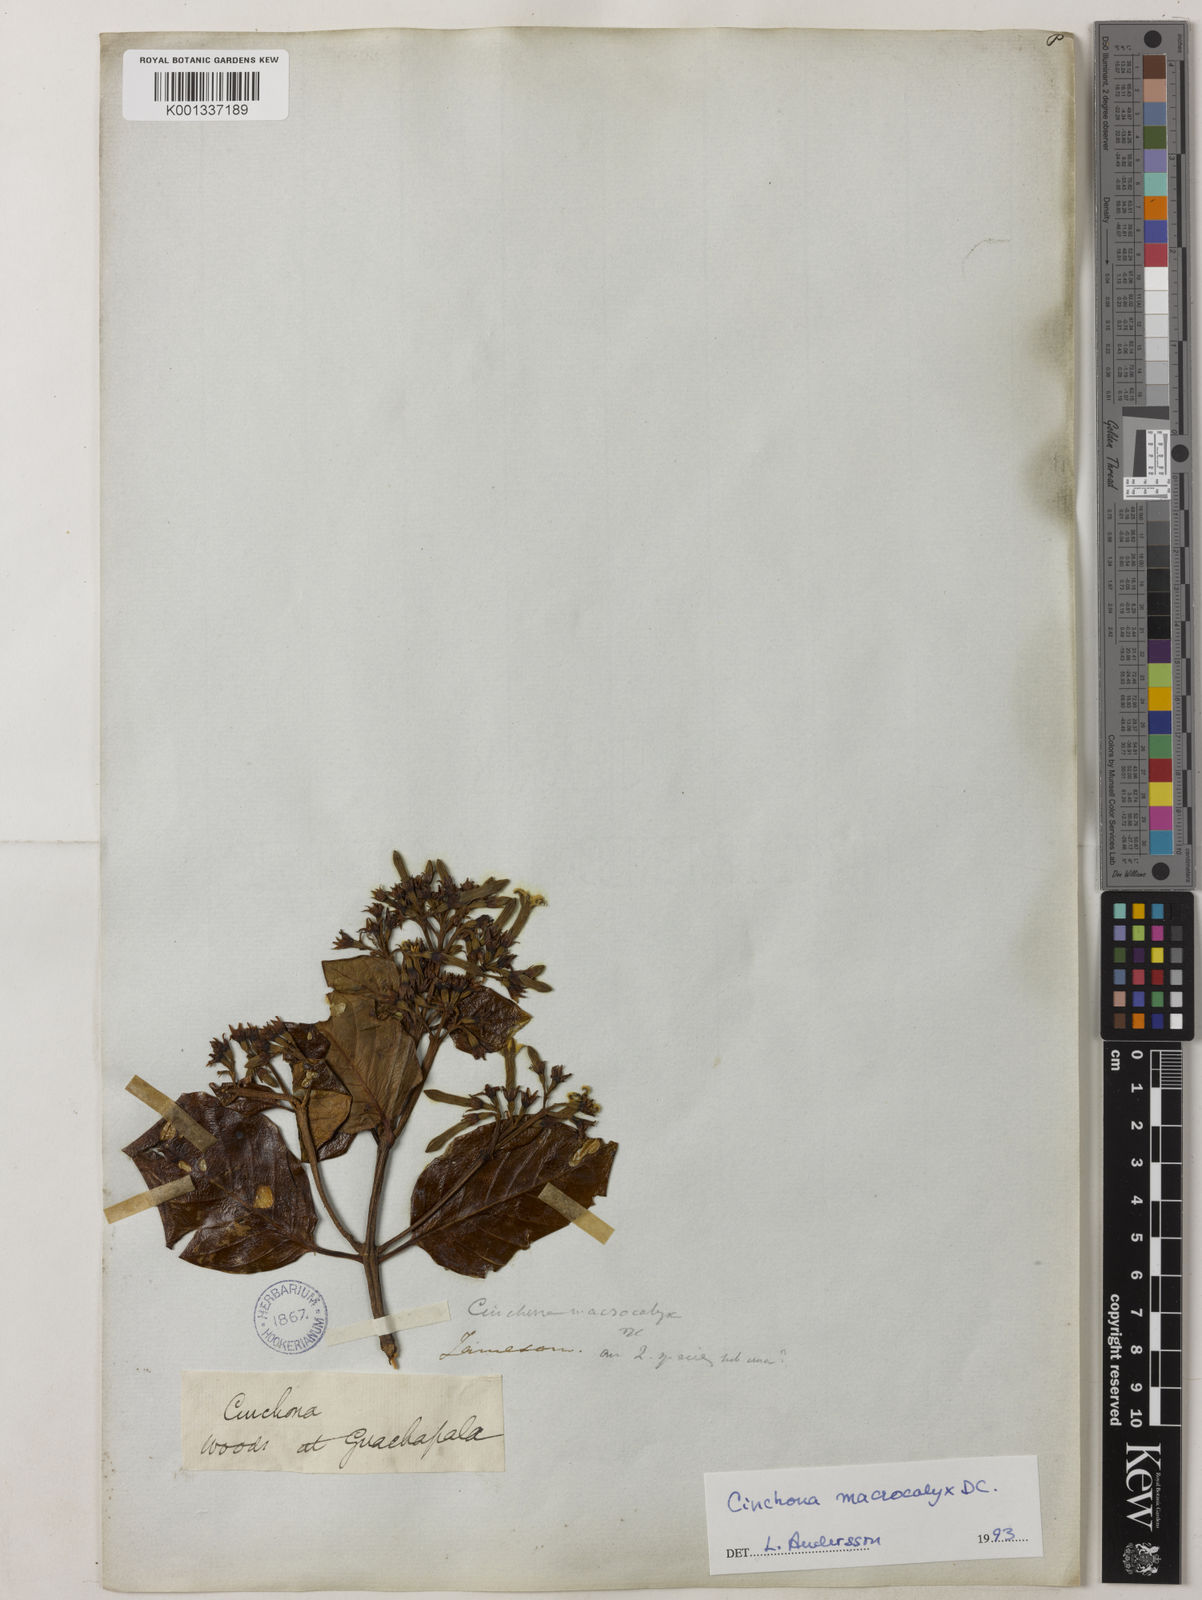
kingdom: Plantae
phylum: Tracheophyta
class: Magnoliopsida
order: Gentianales
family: Rubiaceae
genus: Cinchona
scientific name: Cinchona macrocalyx
